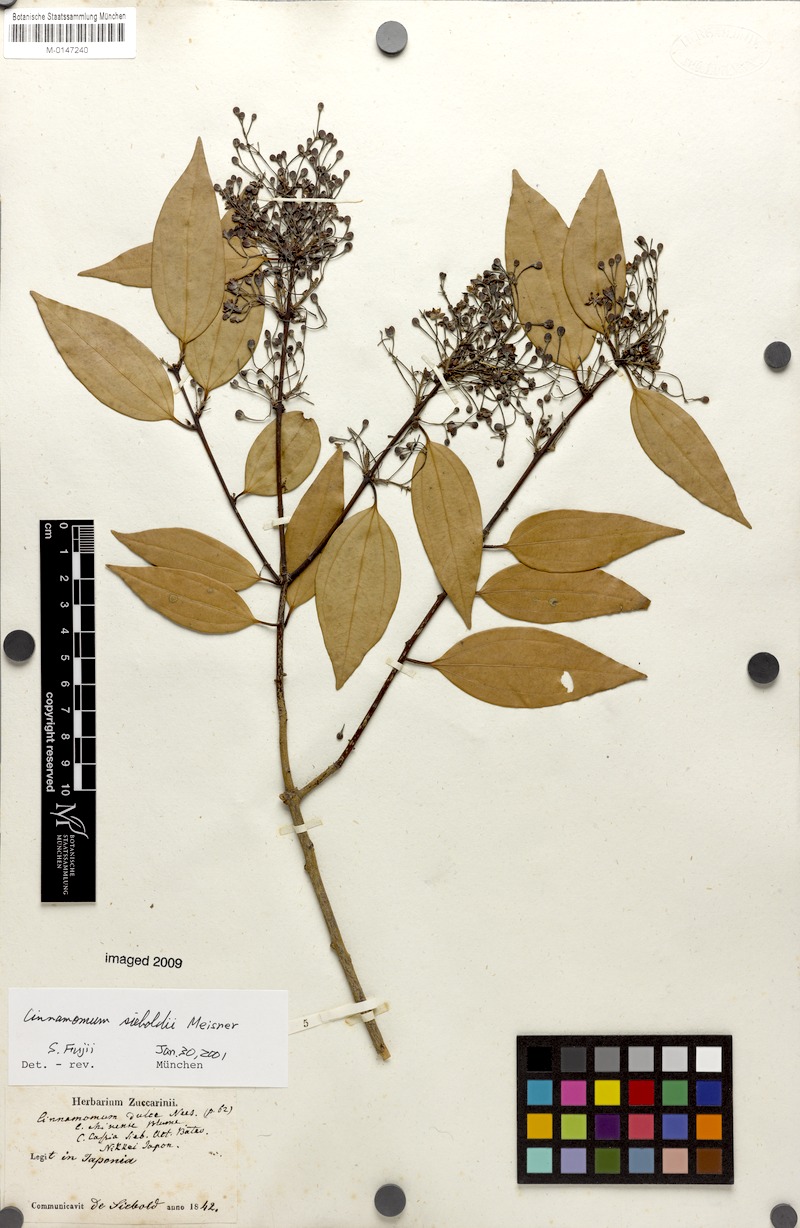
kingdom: Plantae
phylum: Tracheophyta
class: Magnoliopsida
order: Laurales
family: Lauraceae
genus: Cinnamomum
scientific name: Cinnamomum sieboldii
